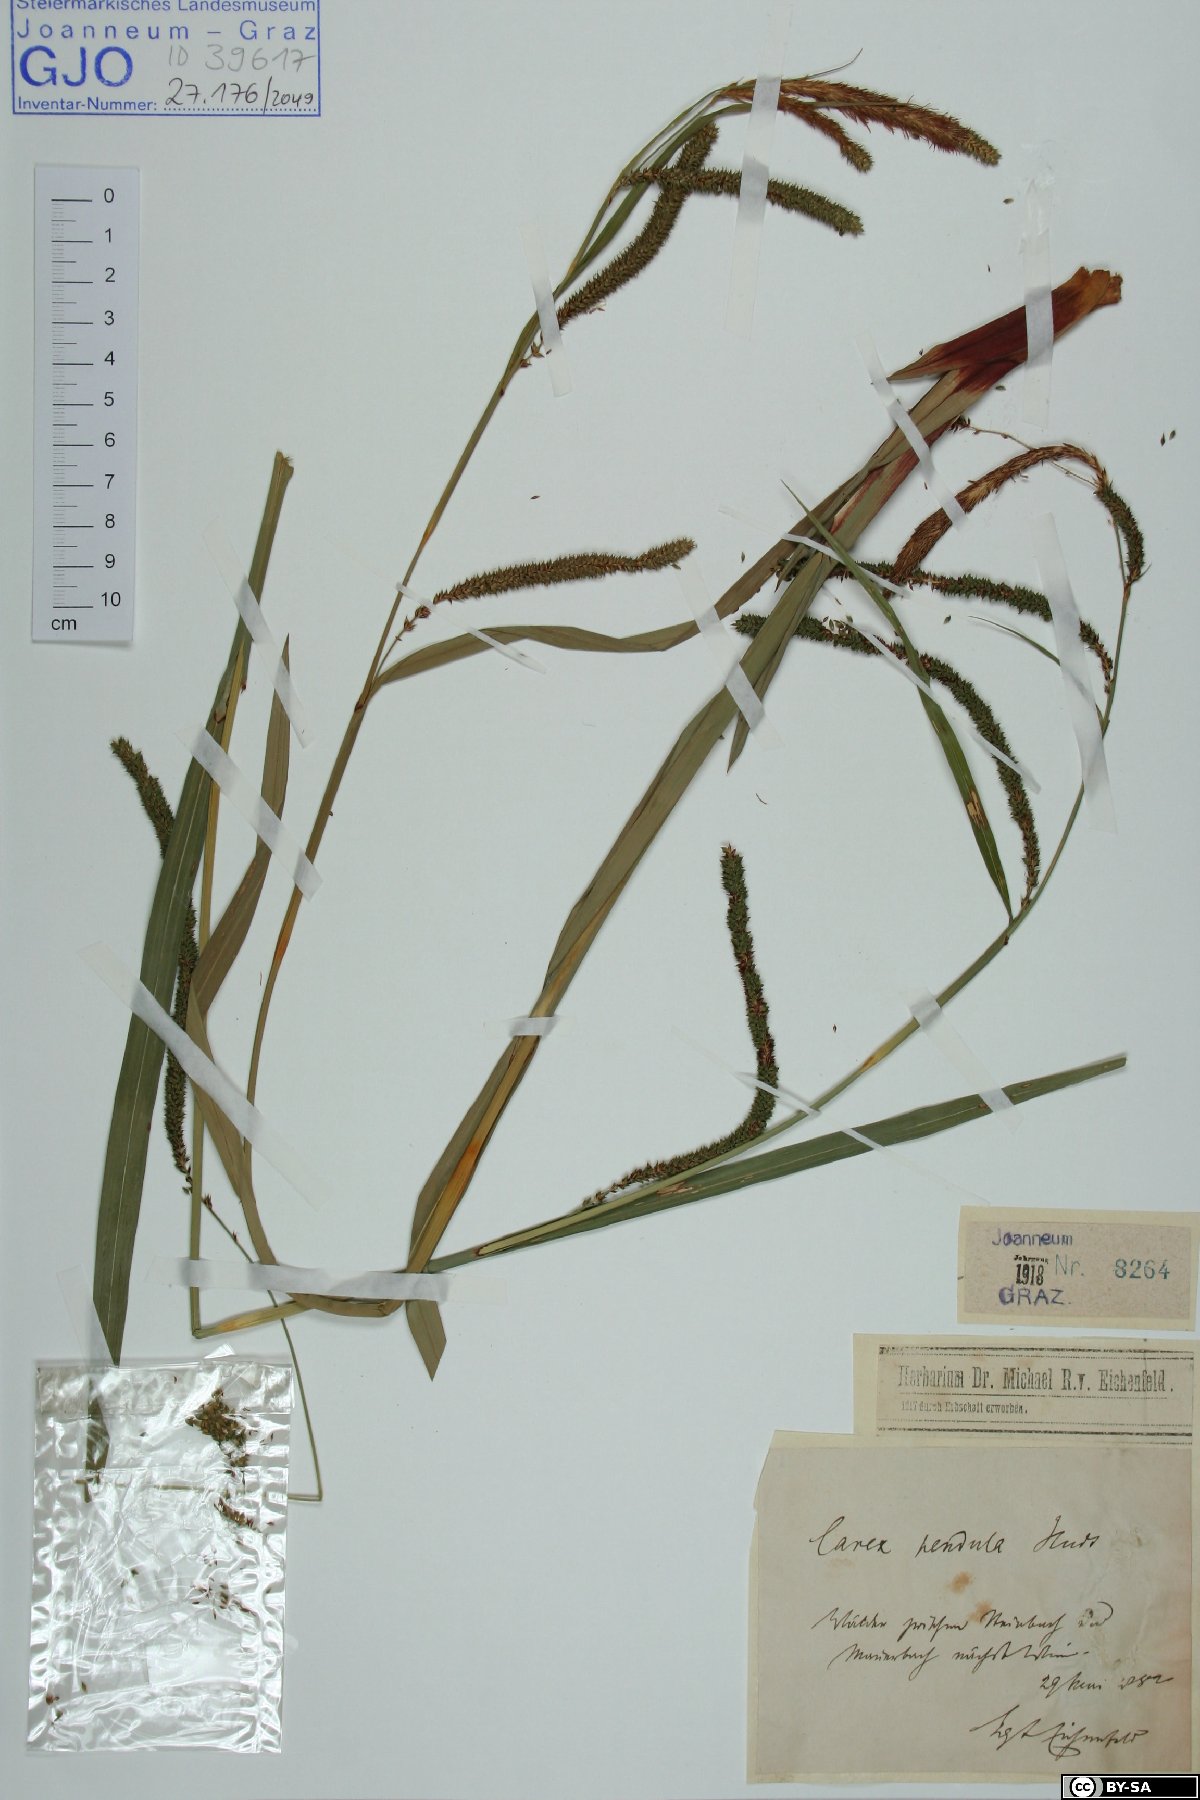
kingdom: Plantae
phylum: Tracheophyta
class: Liliopsida
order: Poales
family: Cyperaceae
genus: Carex
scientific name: Carex pendula
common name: Pendulous sedge
